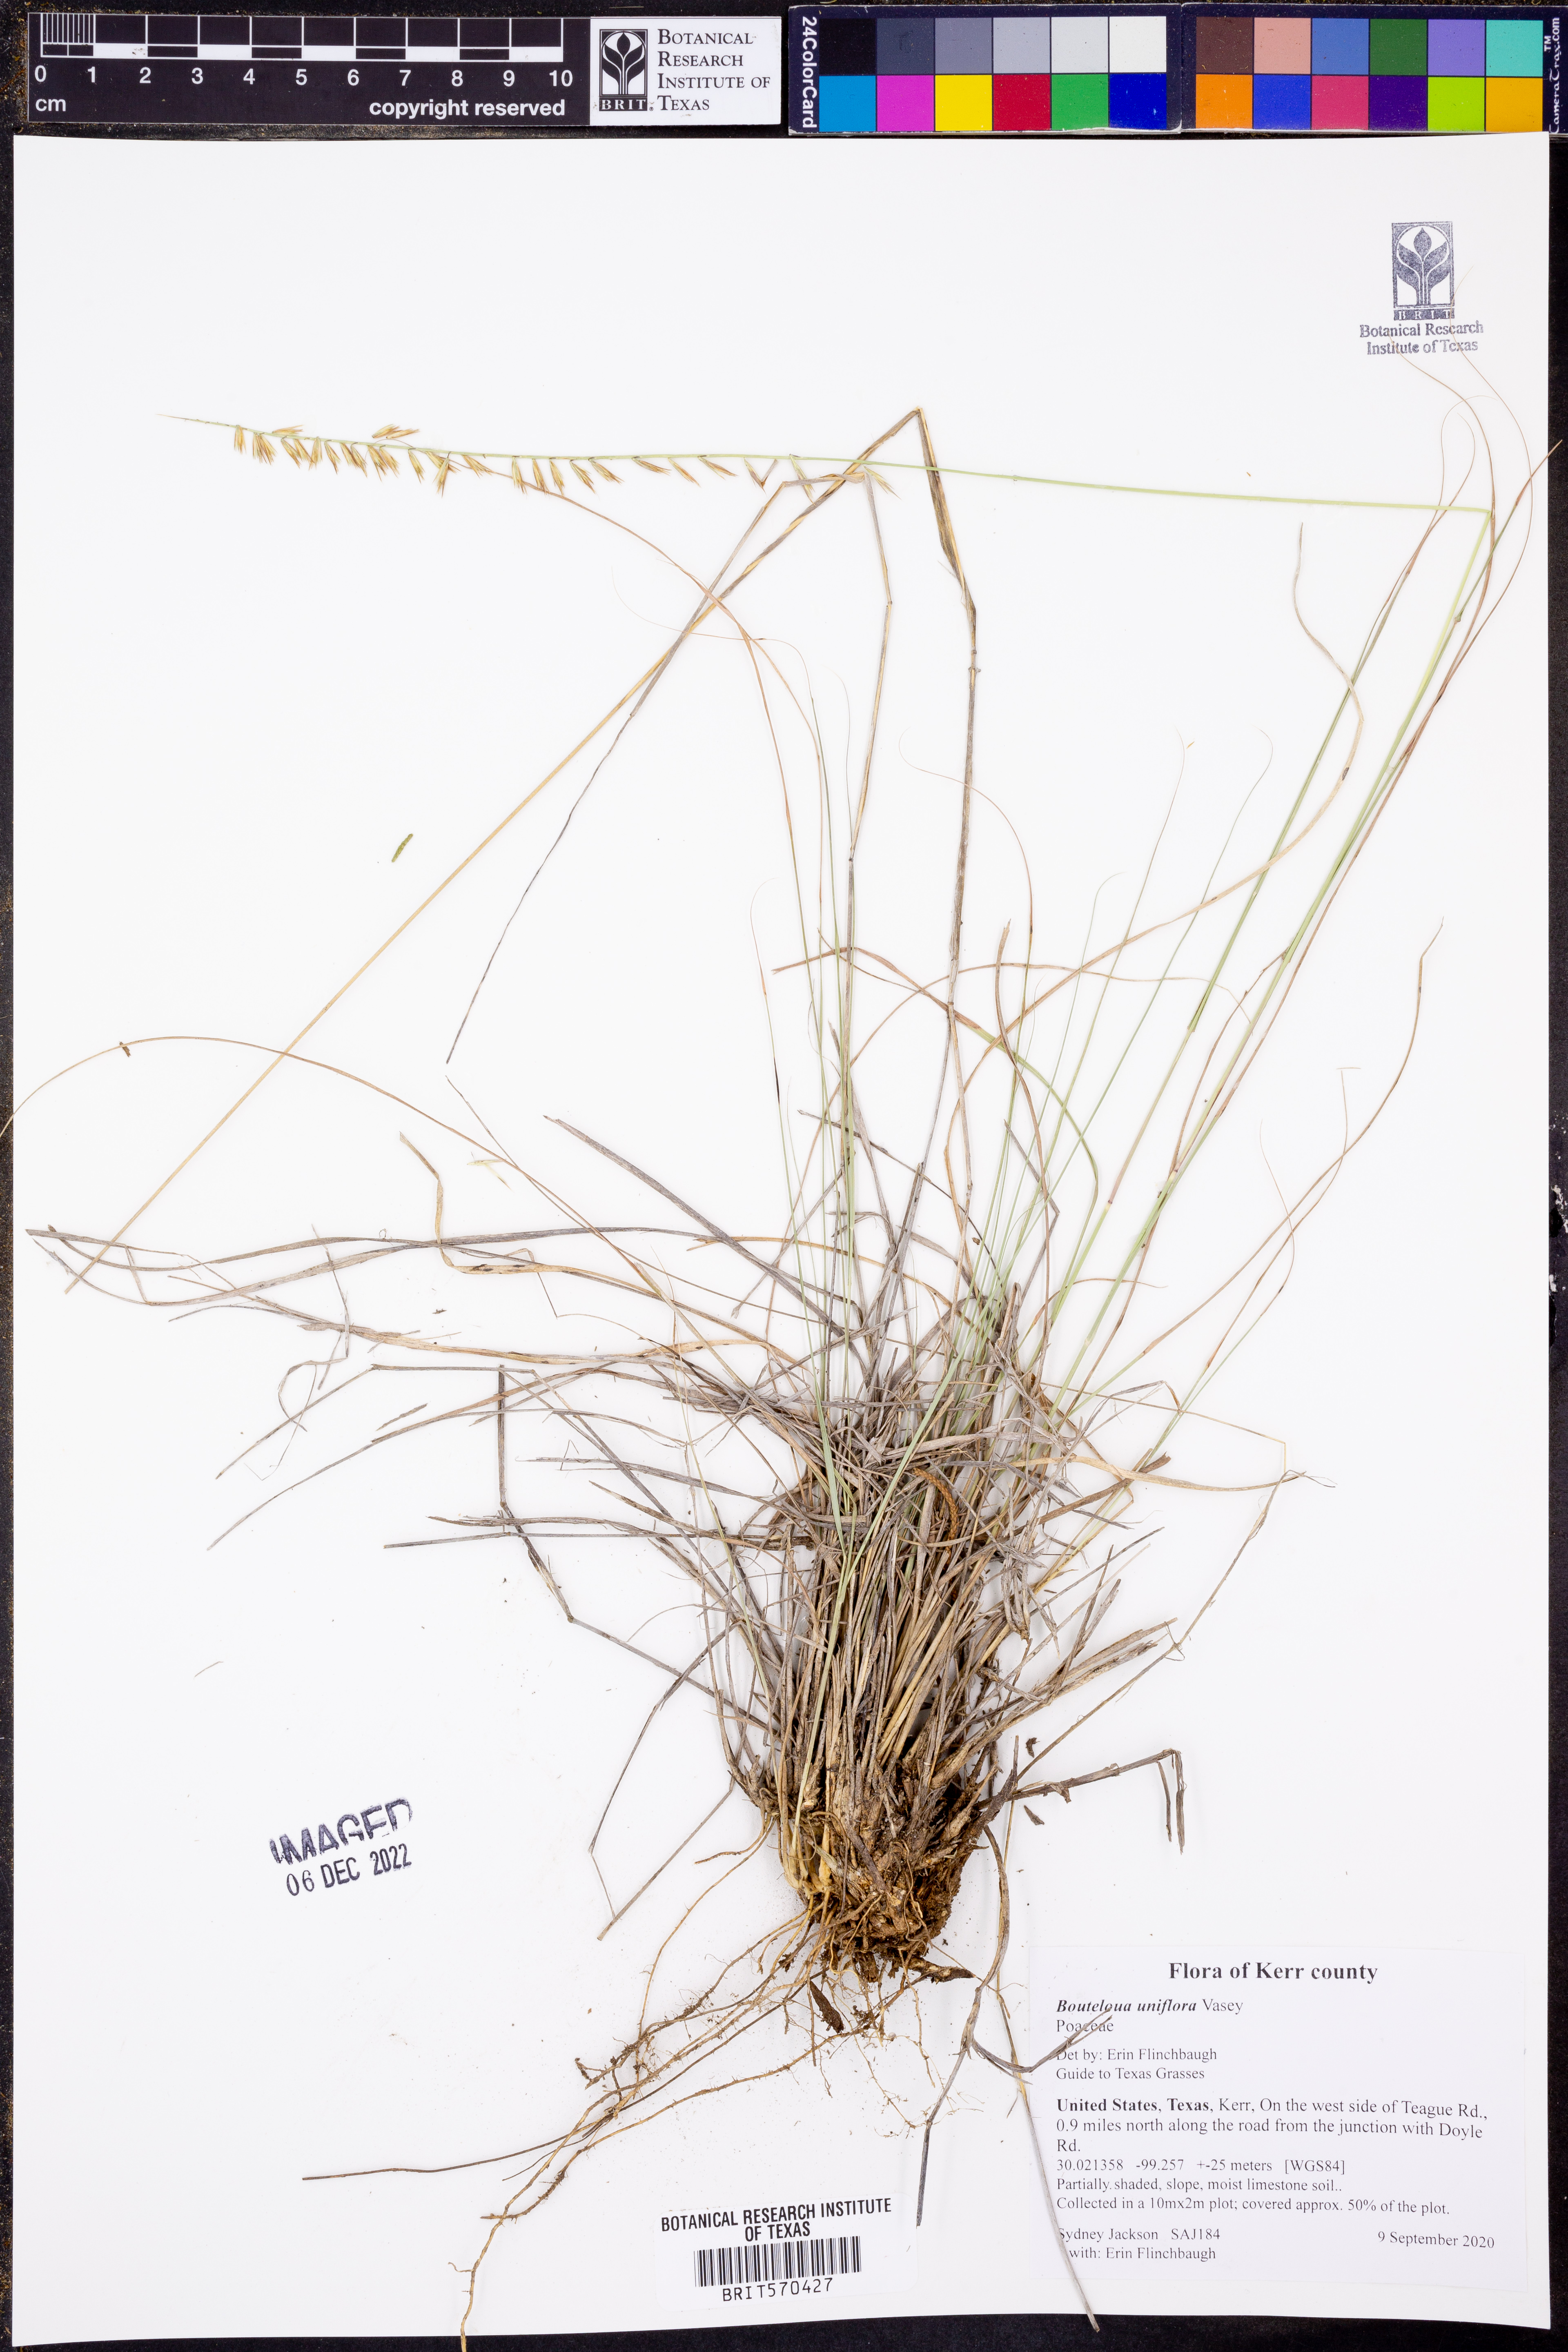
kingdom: Plantae
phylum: Tracheophyta
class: Liliopsida
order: Poales
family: Poaceae
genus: Bouteloua
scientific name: Bouteloua uniflora
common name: Neally's grama
